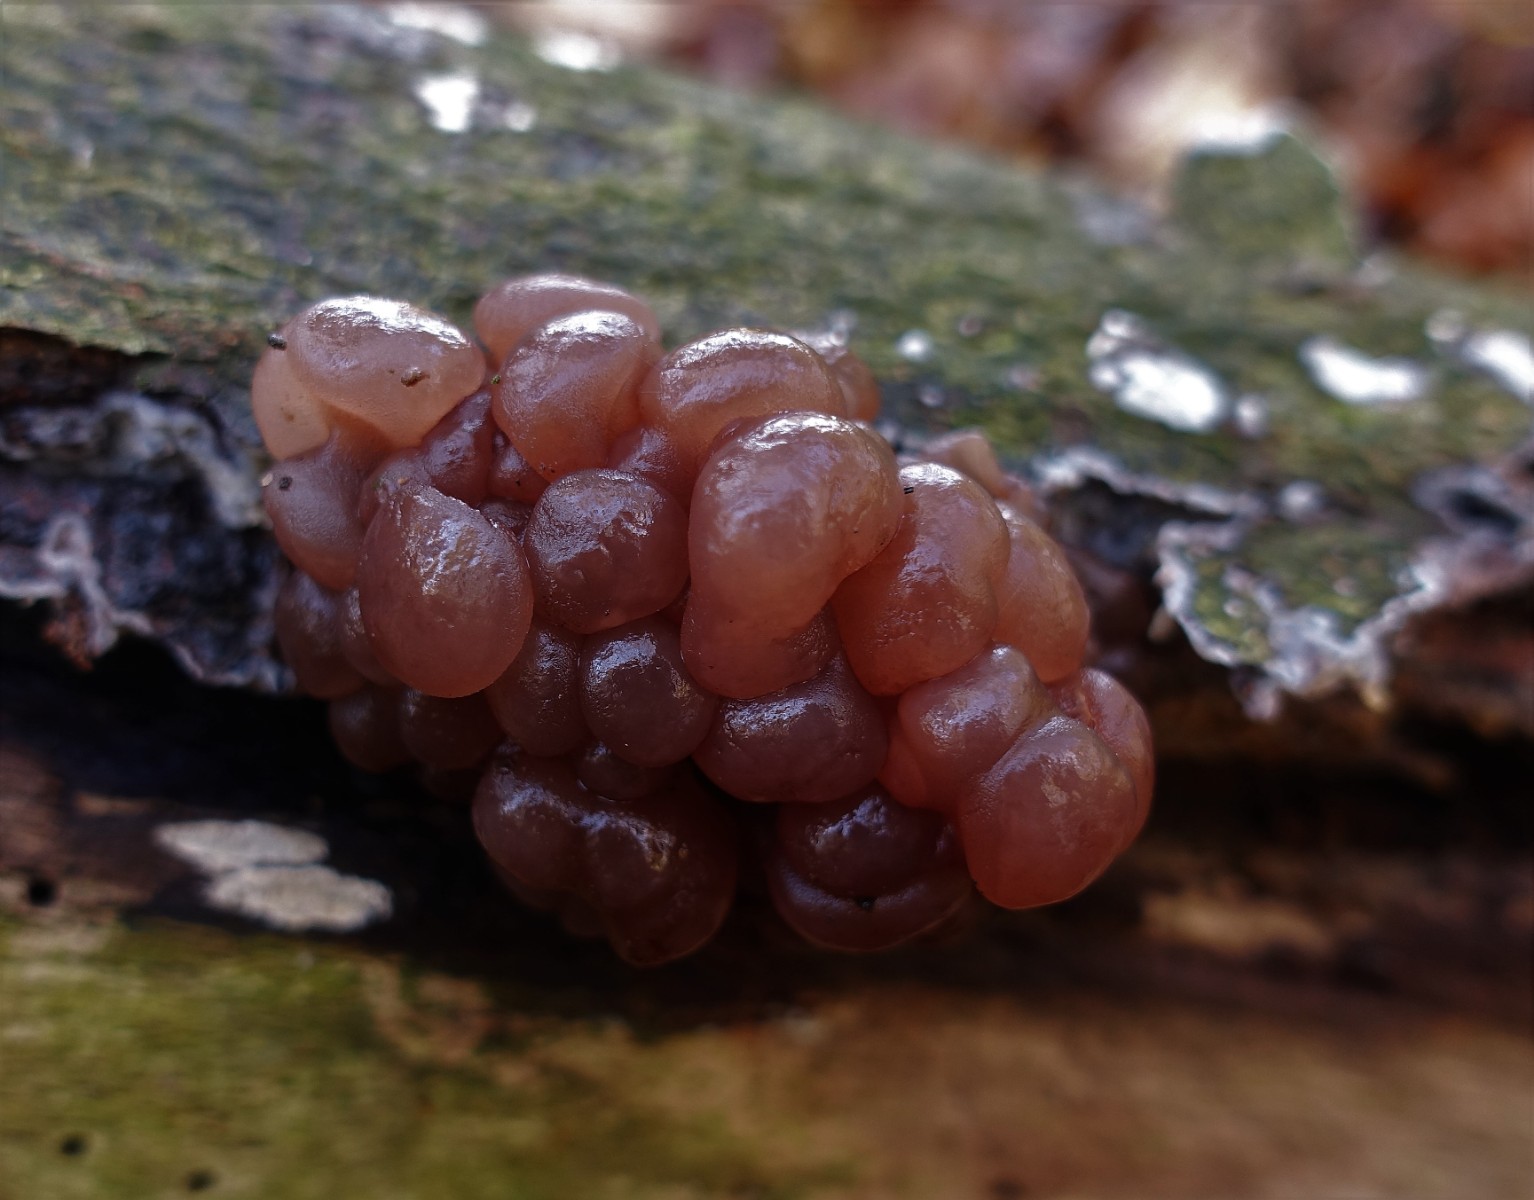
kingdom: Fungi
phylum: Ascomycota
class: Leotiomycetes
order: Helotiales
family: Gelatinodiscaceae
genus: Ascotremella
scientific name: Ascotremella faginea
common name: hjerne-bævreskive
